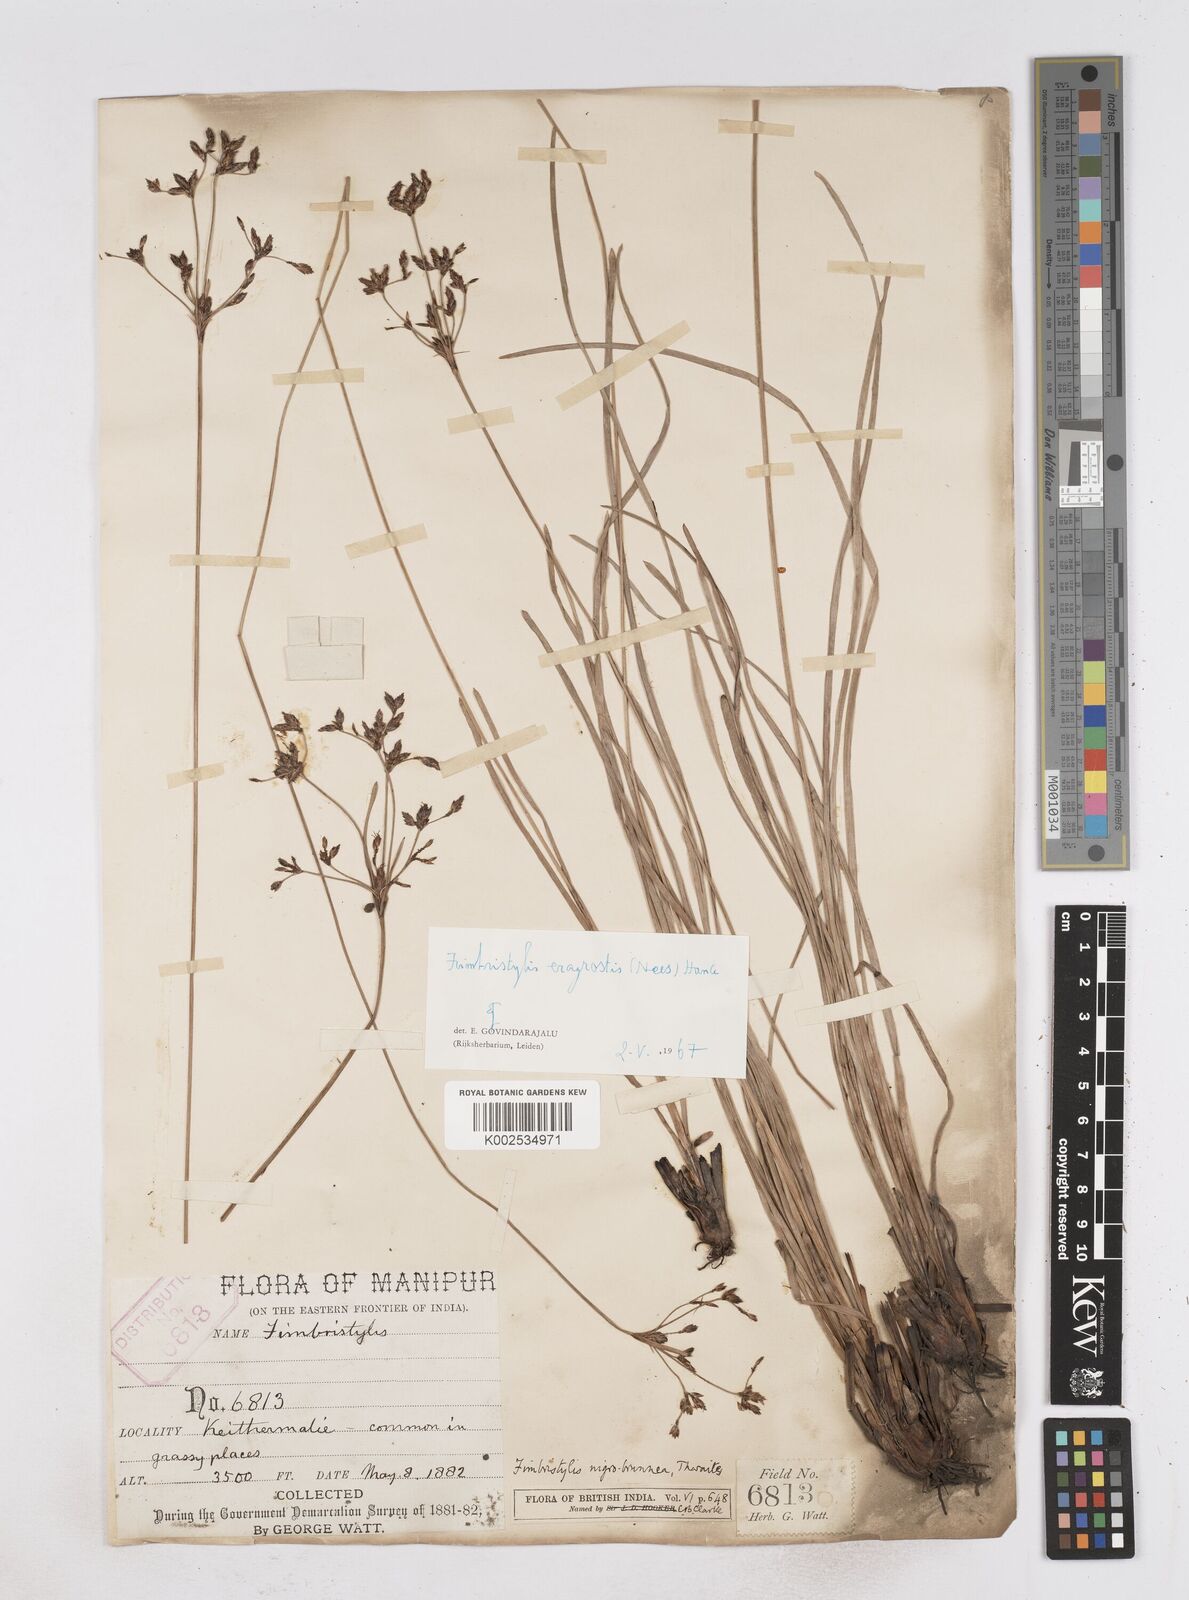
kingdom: Plantae
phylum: Tracheophyta
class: Liliopsida
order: Poales
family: Cyperaceae
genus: Fimbristylis
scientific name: Fimbristylis nigrobrunnea
